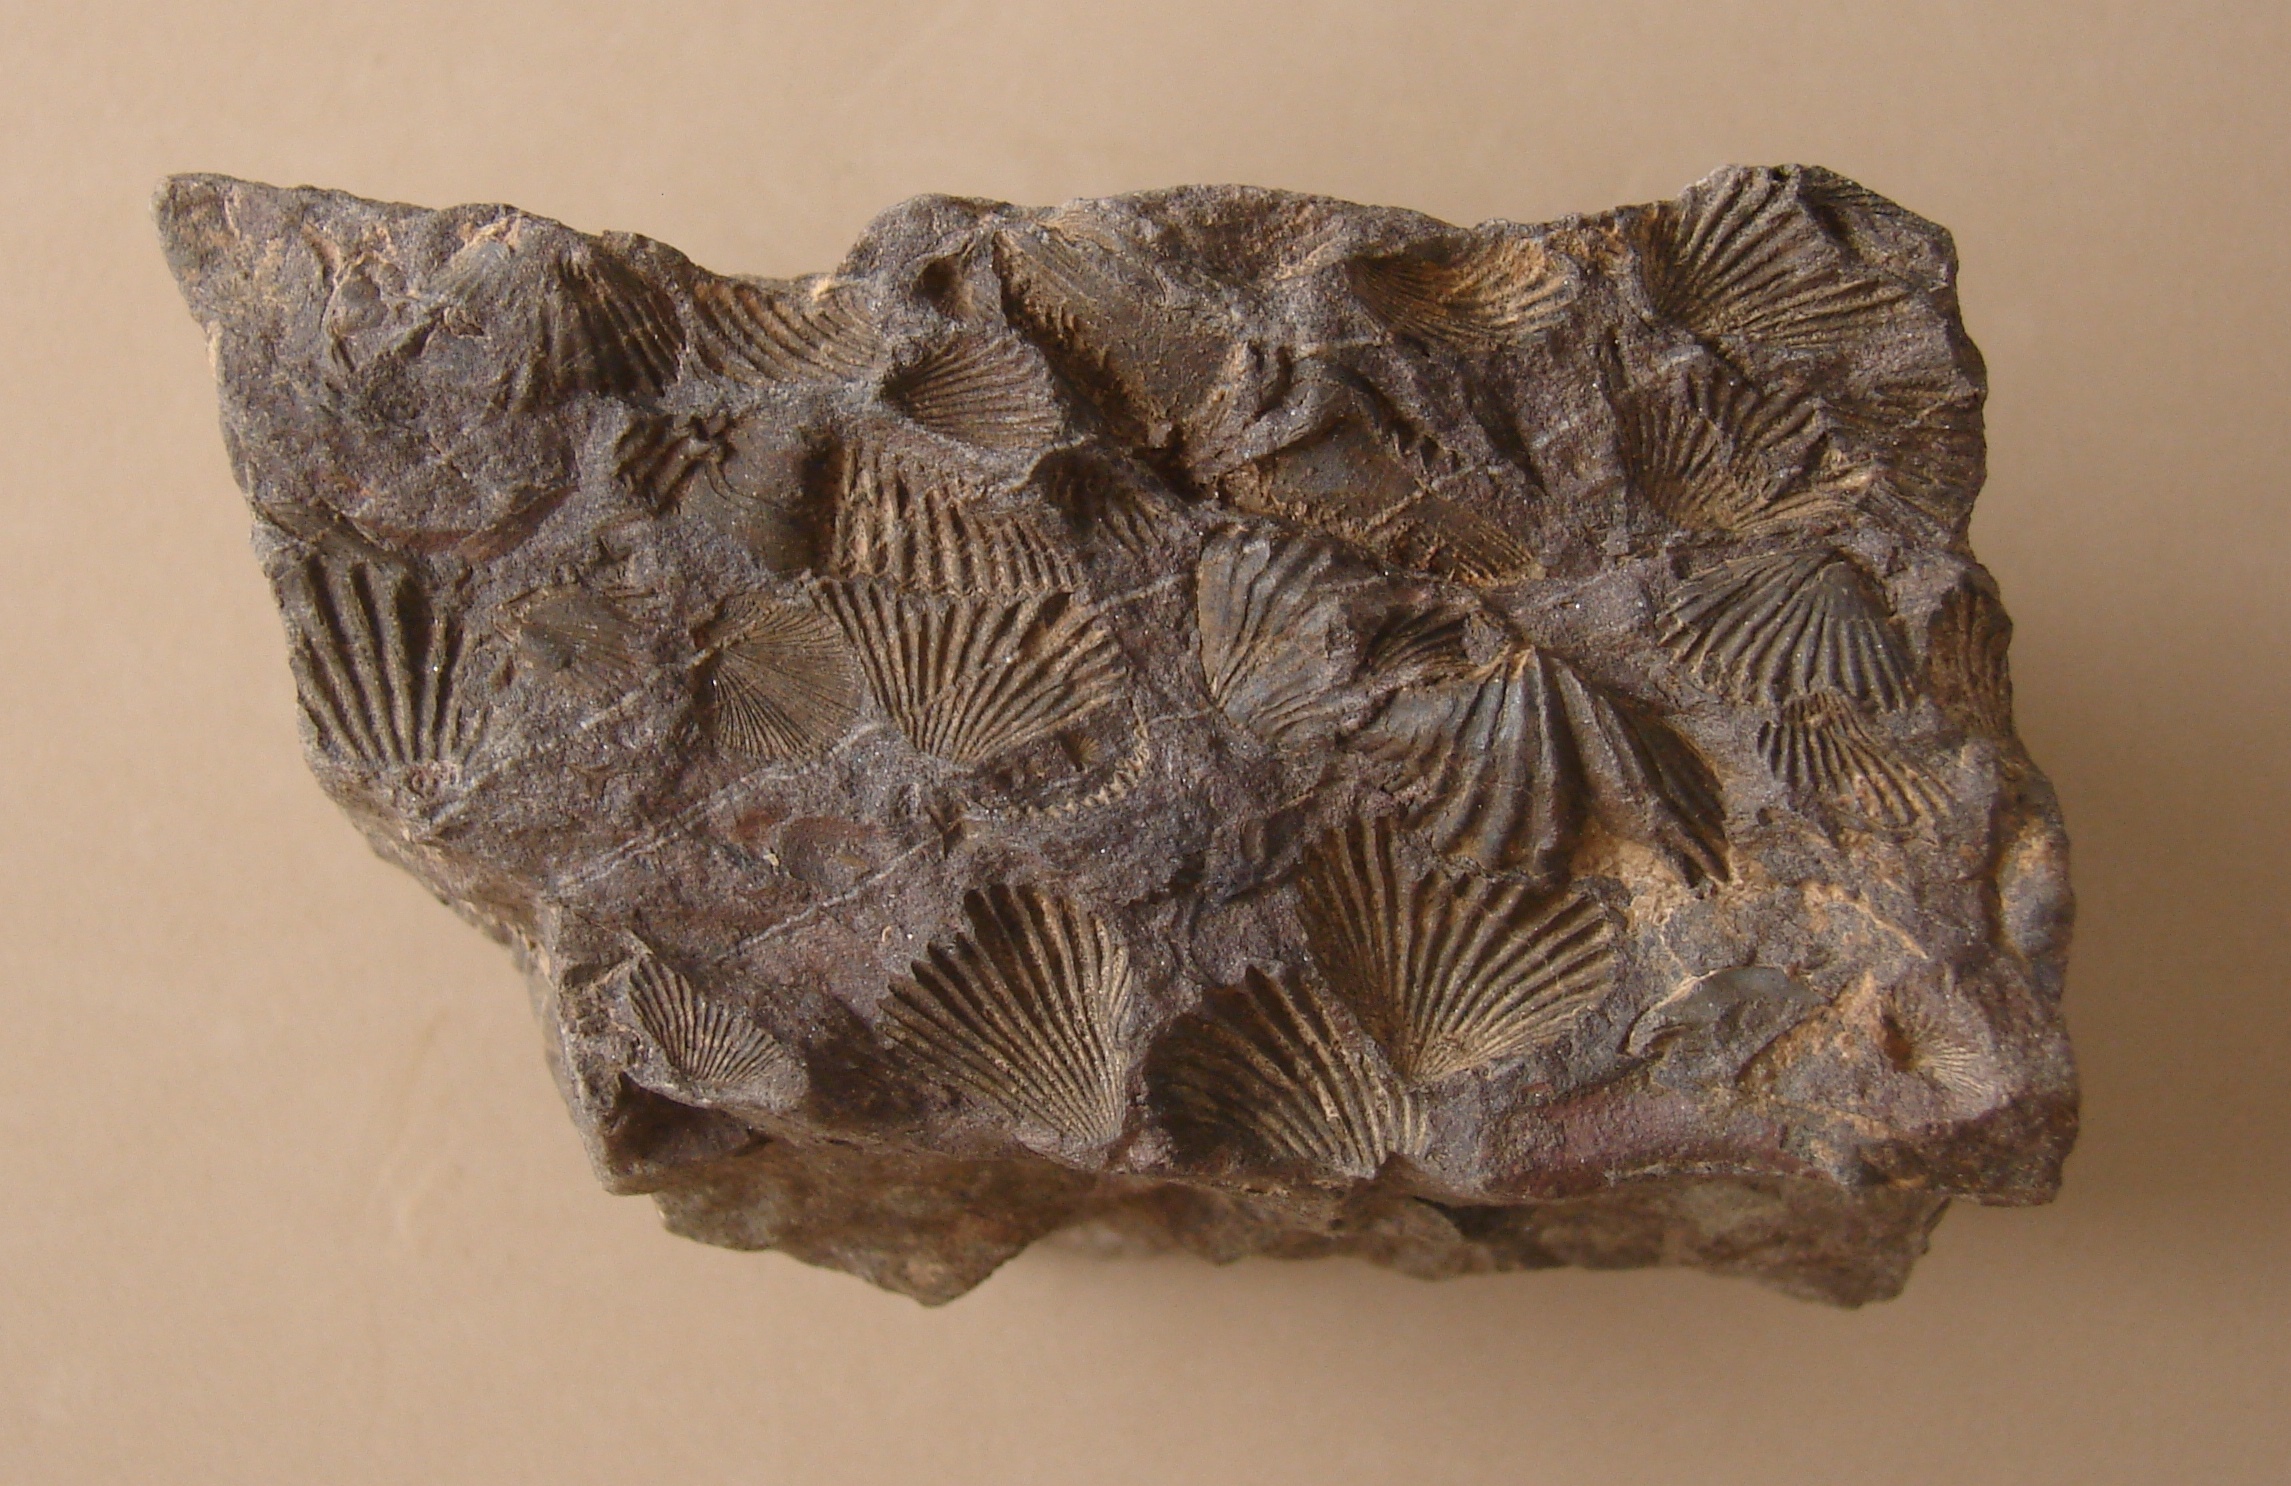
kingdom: Animalia
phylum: Brachiopoda
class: Rhynchonellata
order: Rhynchonellida
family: Trigonirhynchiidae
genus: Oligoptycherhynchus
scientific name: Oligoptycherhynchus
